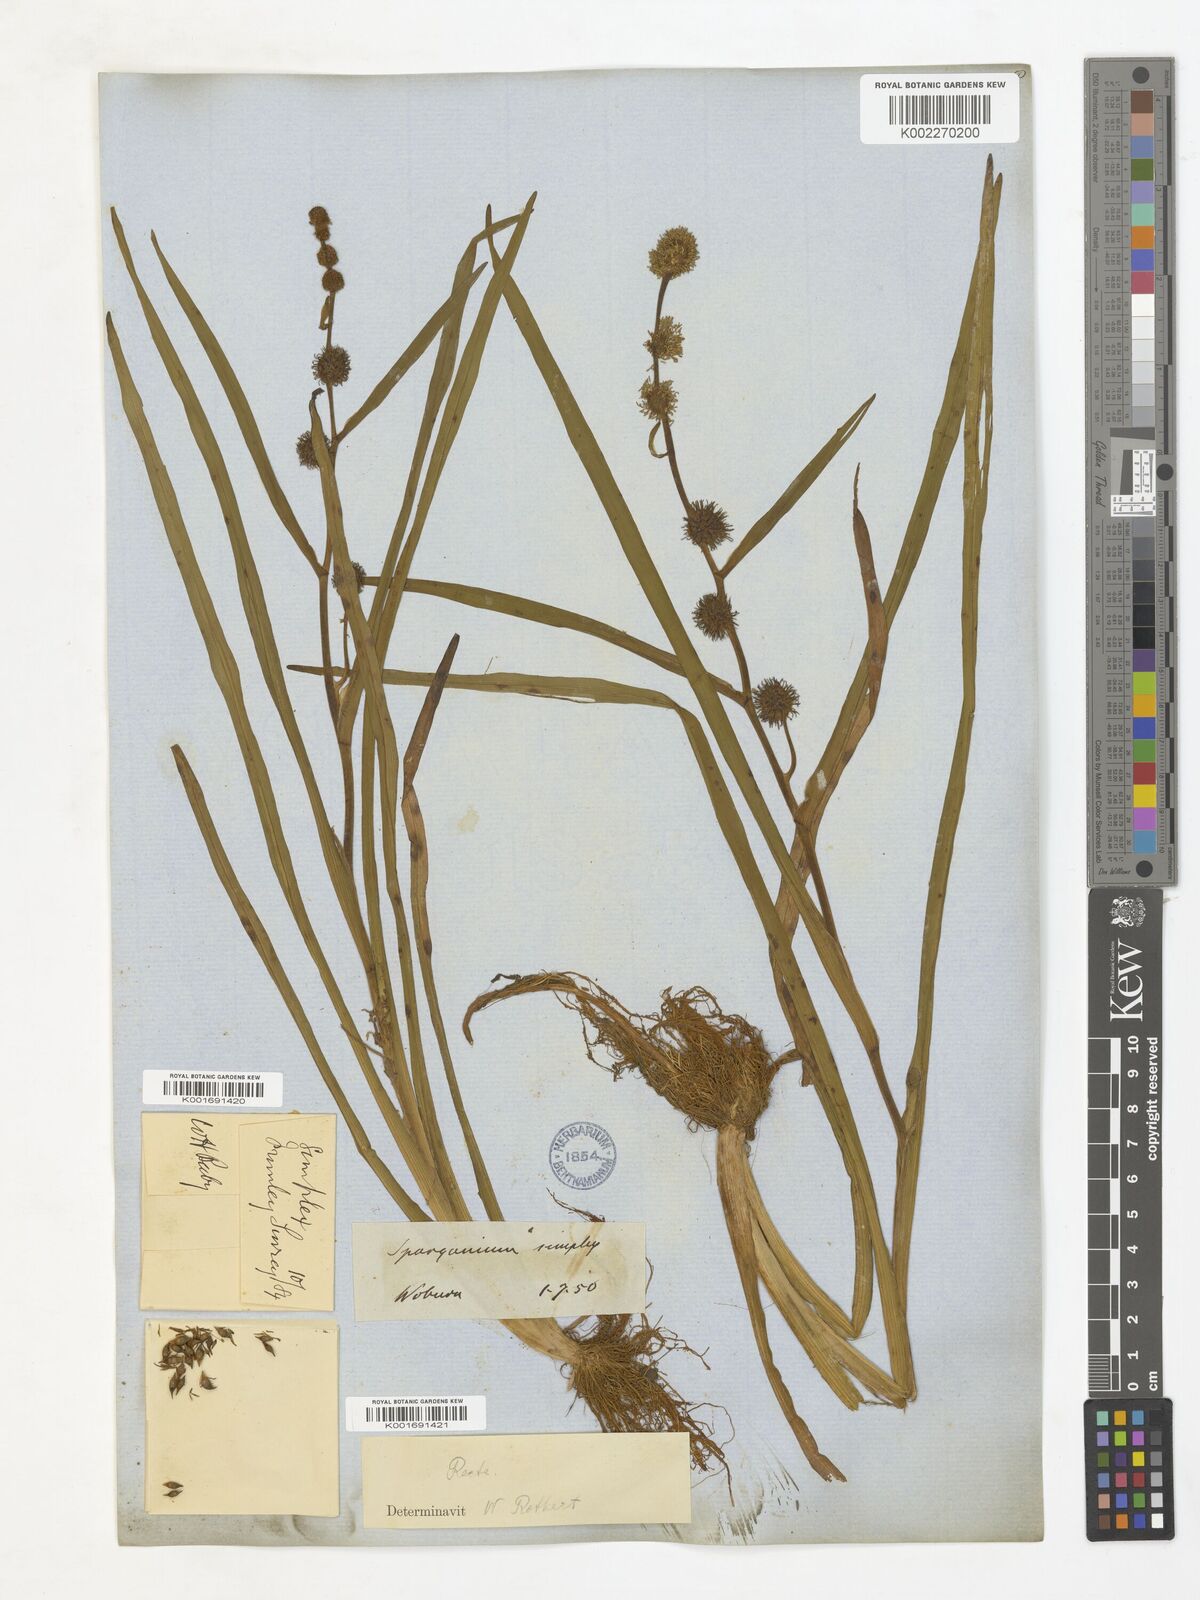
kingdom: Plantae
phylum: Tracheophyta
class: Liliopsida
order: Poales
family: Typhaceae
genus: Sparganium
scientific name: Sparganium angustifolium
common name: Floating bur-reed
